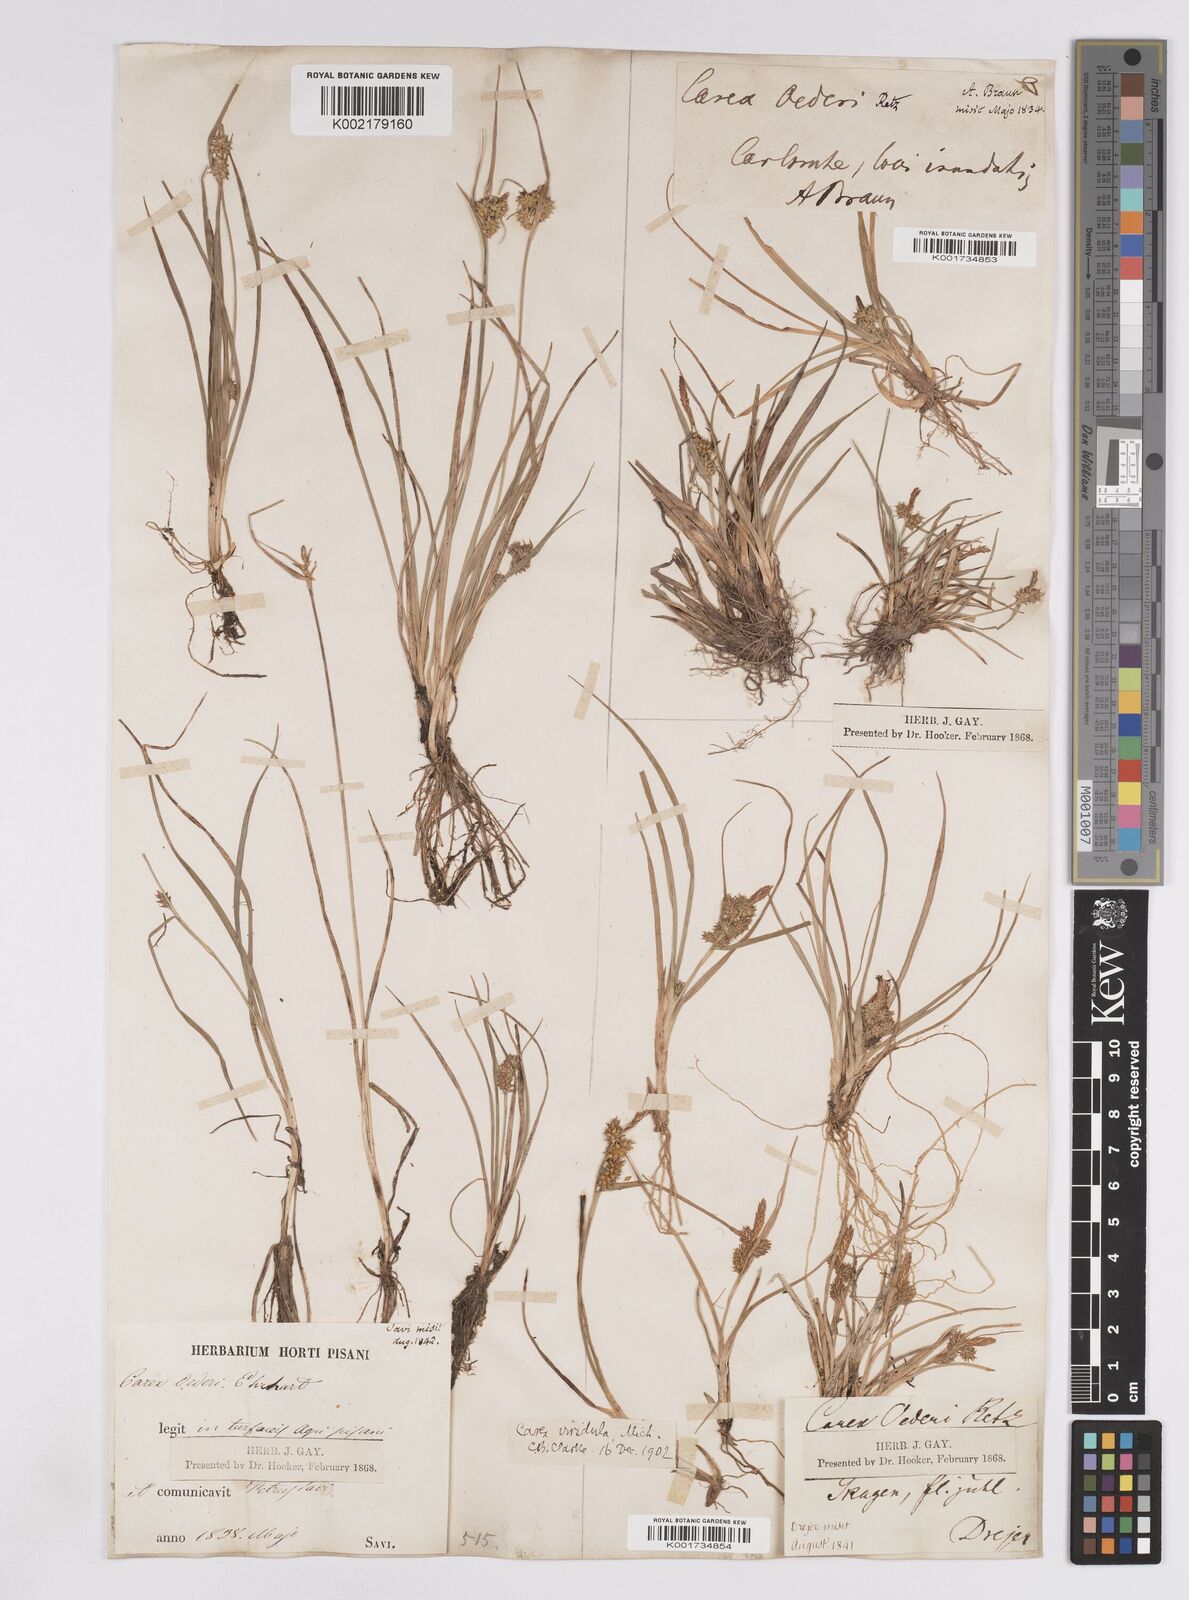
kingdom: Plantae
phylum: Tracheophyta
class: Liliopsida
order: Poales
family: Cyperaceae
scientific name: Cyperaceae
